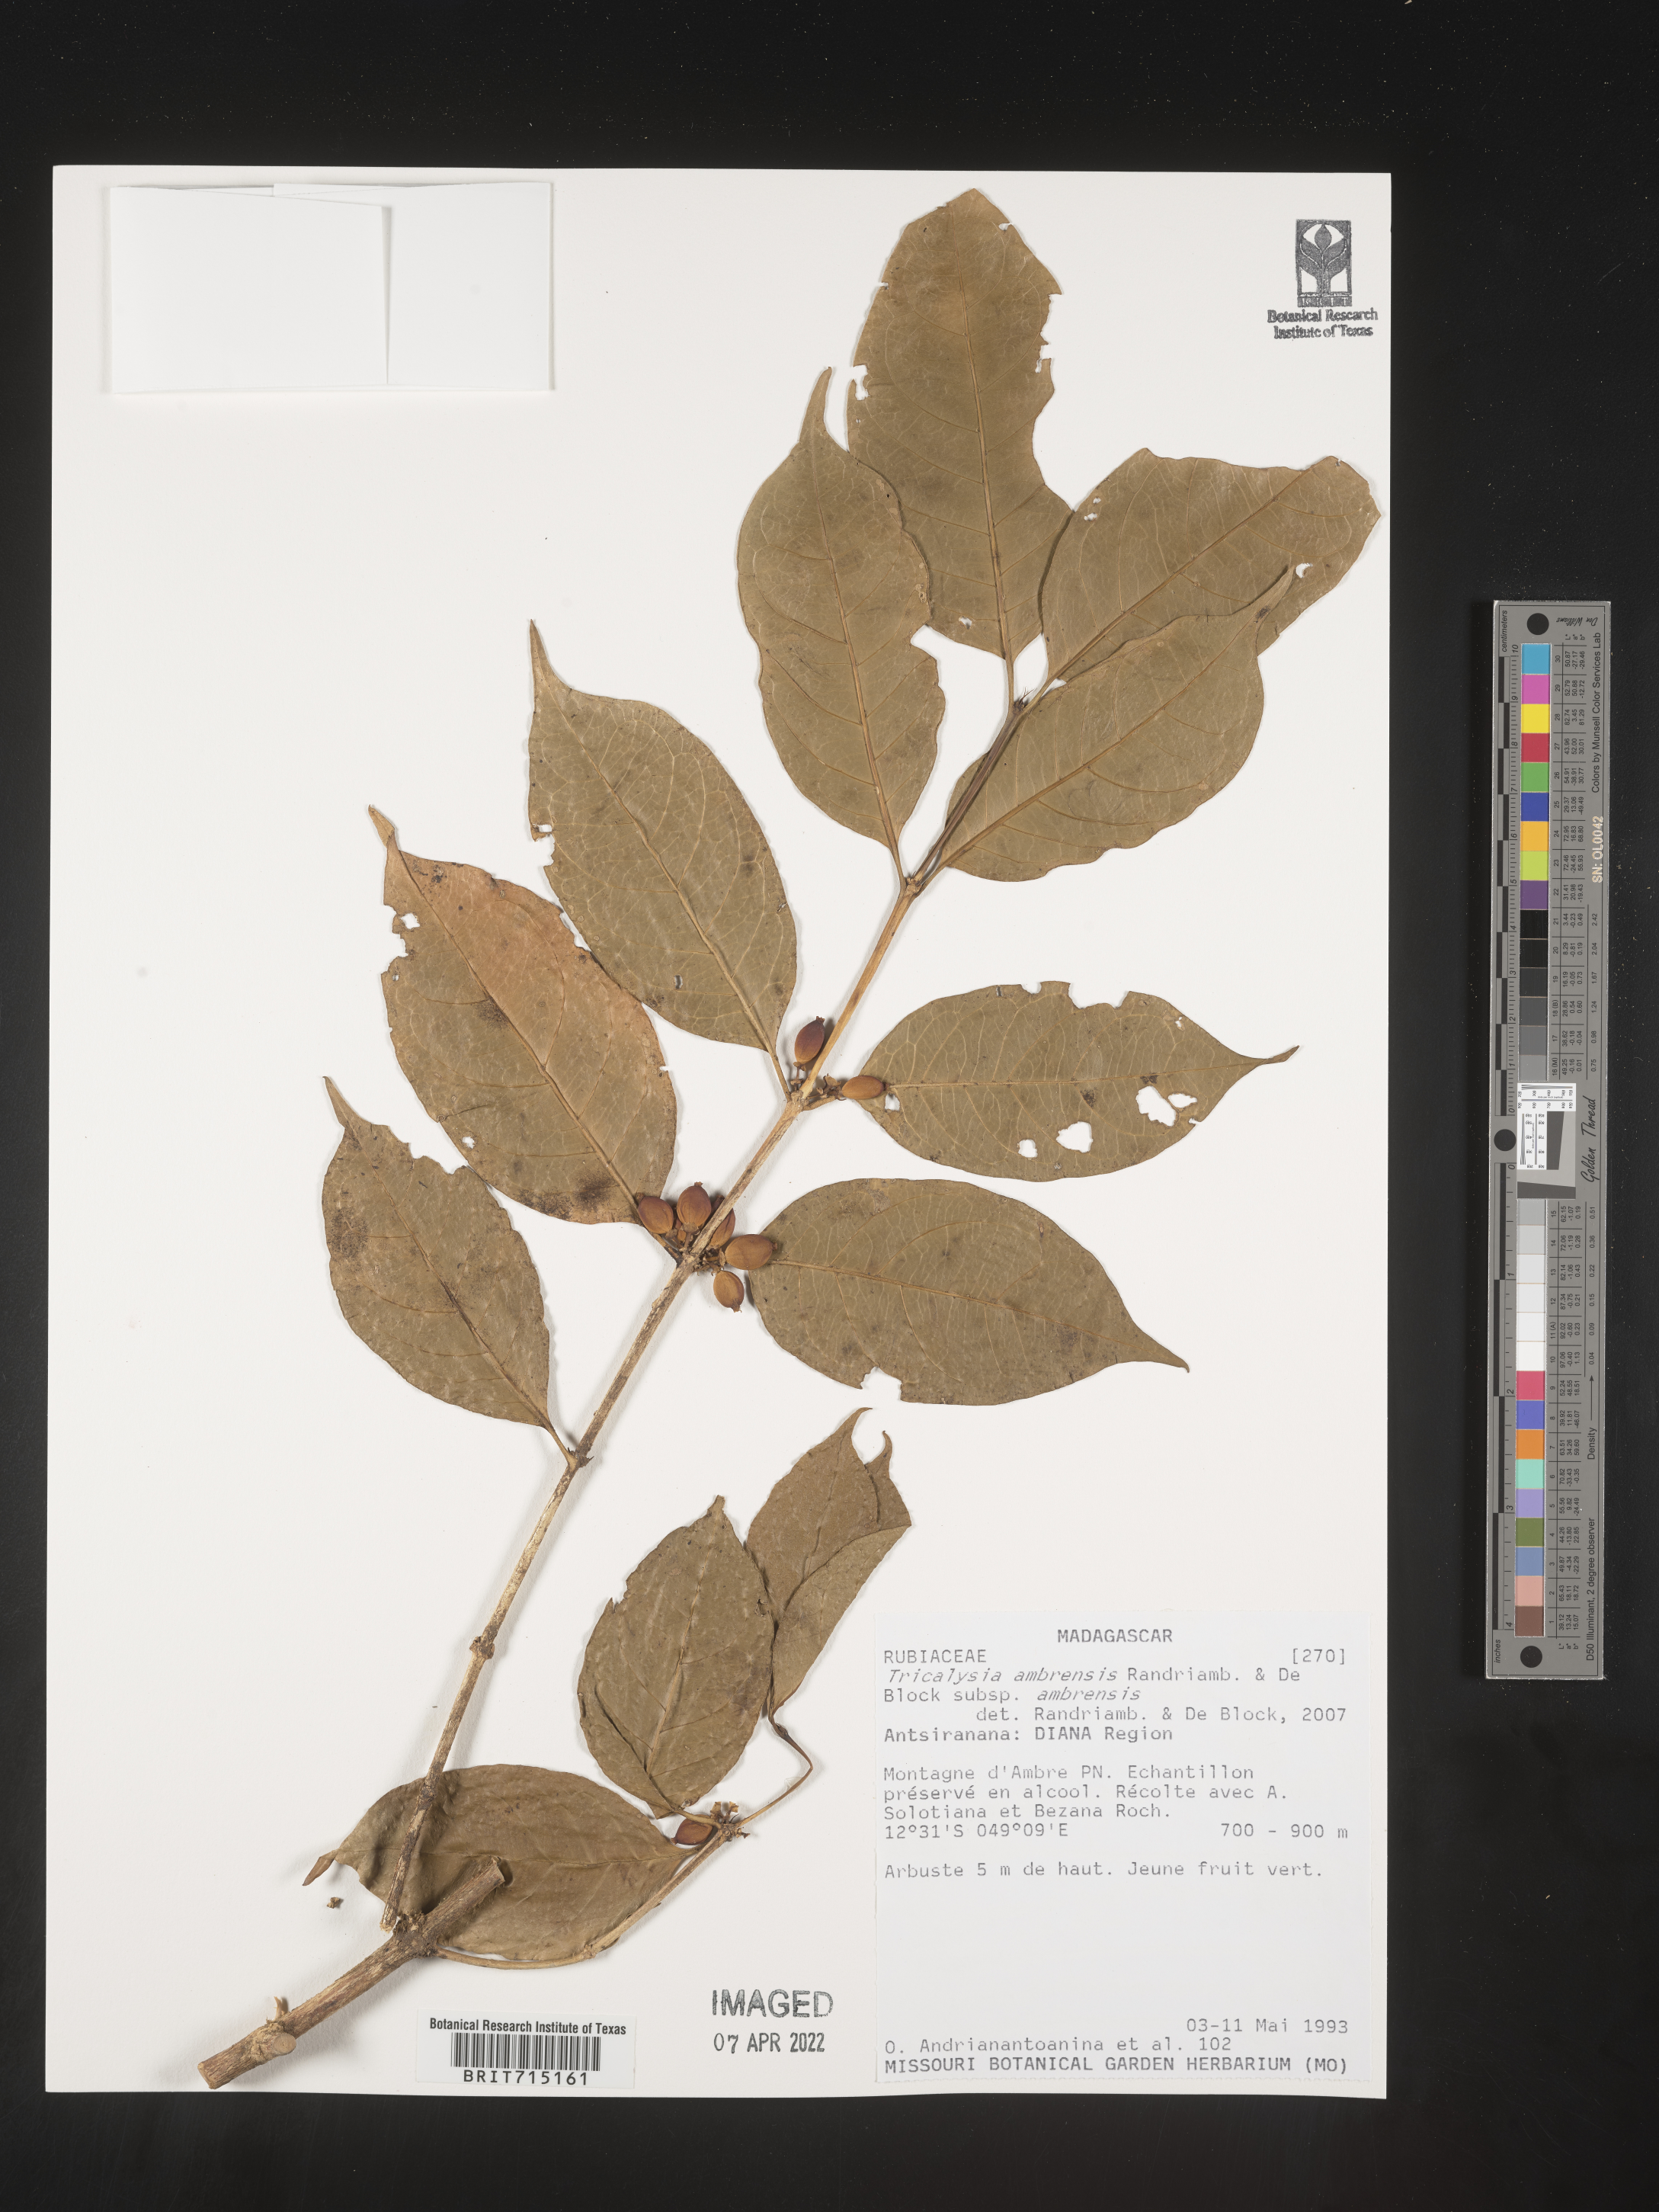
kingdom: Plantae
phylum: Tracheophyta
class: Magnoliopsida
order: Gentianales
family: Rubiaceae
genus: Tricalysia
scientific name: Tricalysia
